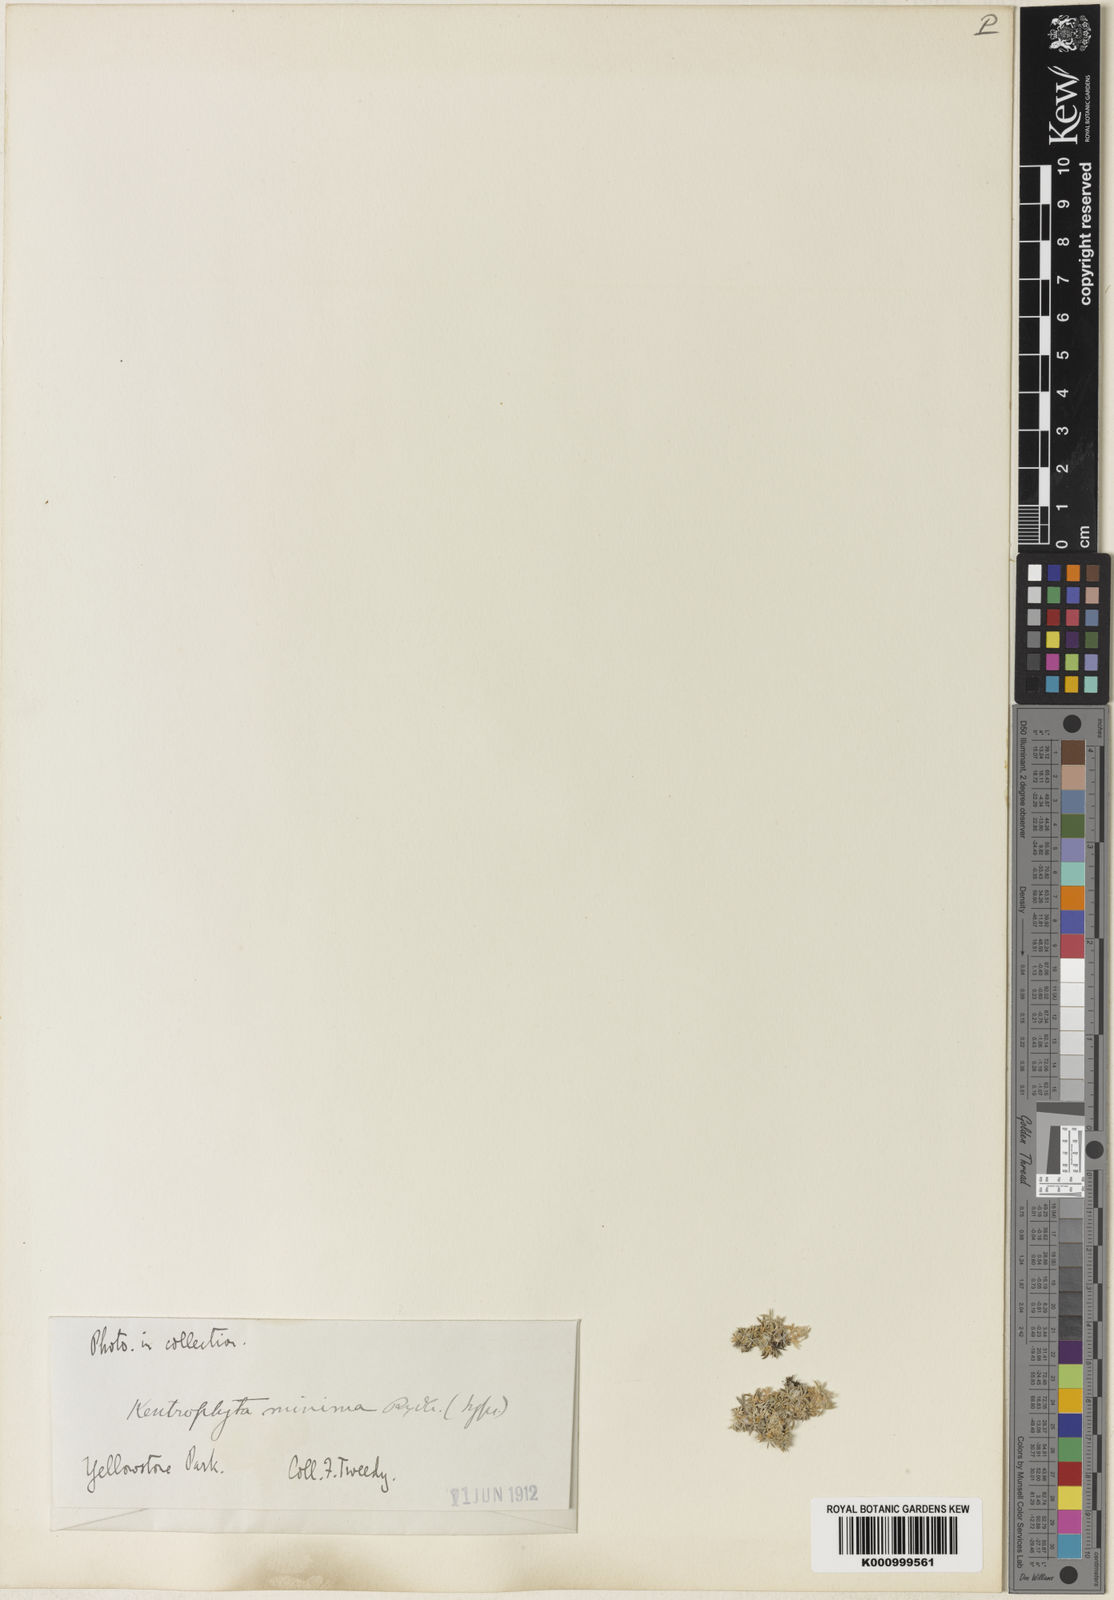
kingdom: Plantae
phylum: Tracheophyta
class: Magnoliopsida
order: Fabales
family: Fabaceae
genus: Astragalus
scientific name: Astragalus minimus
